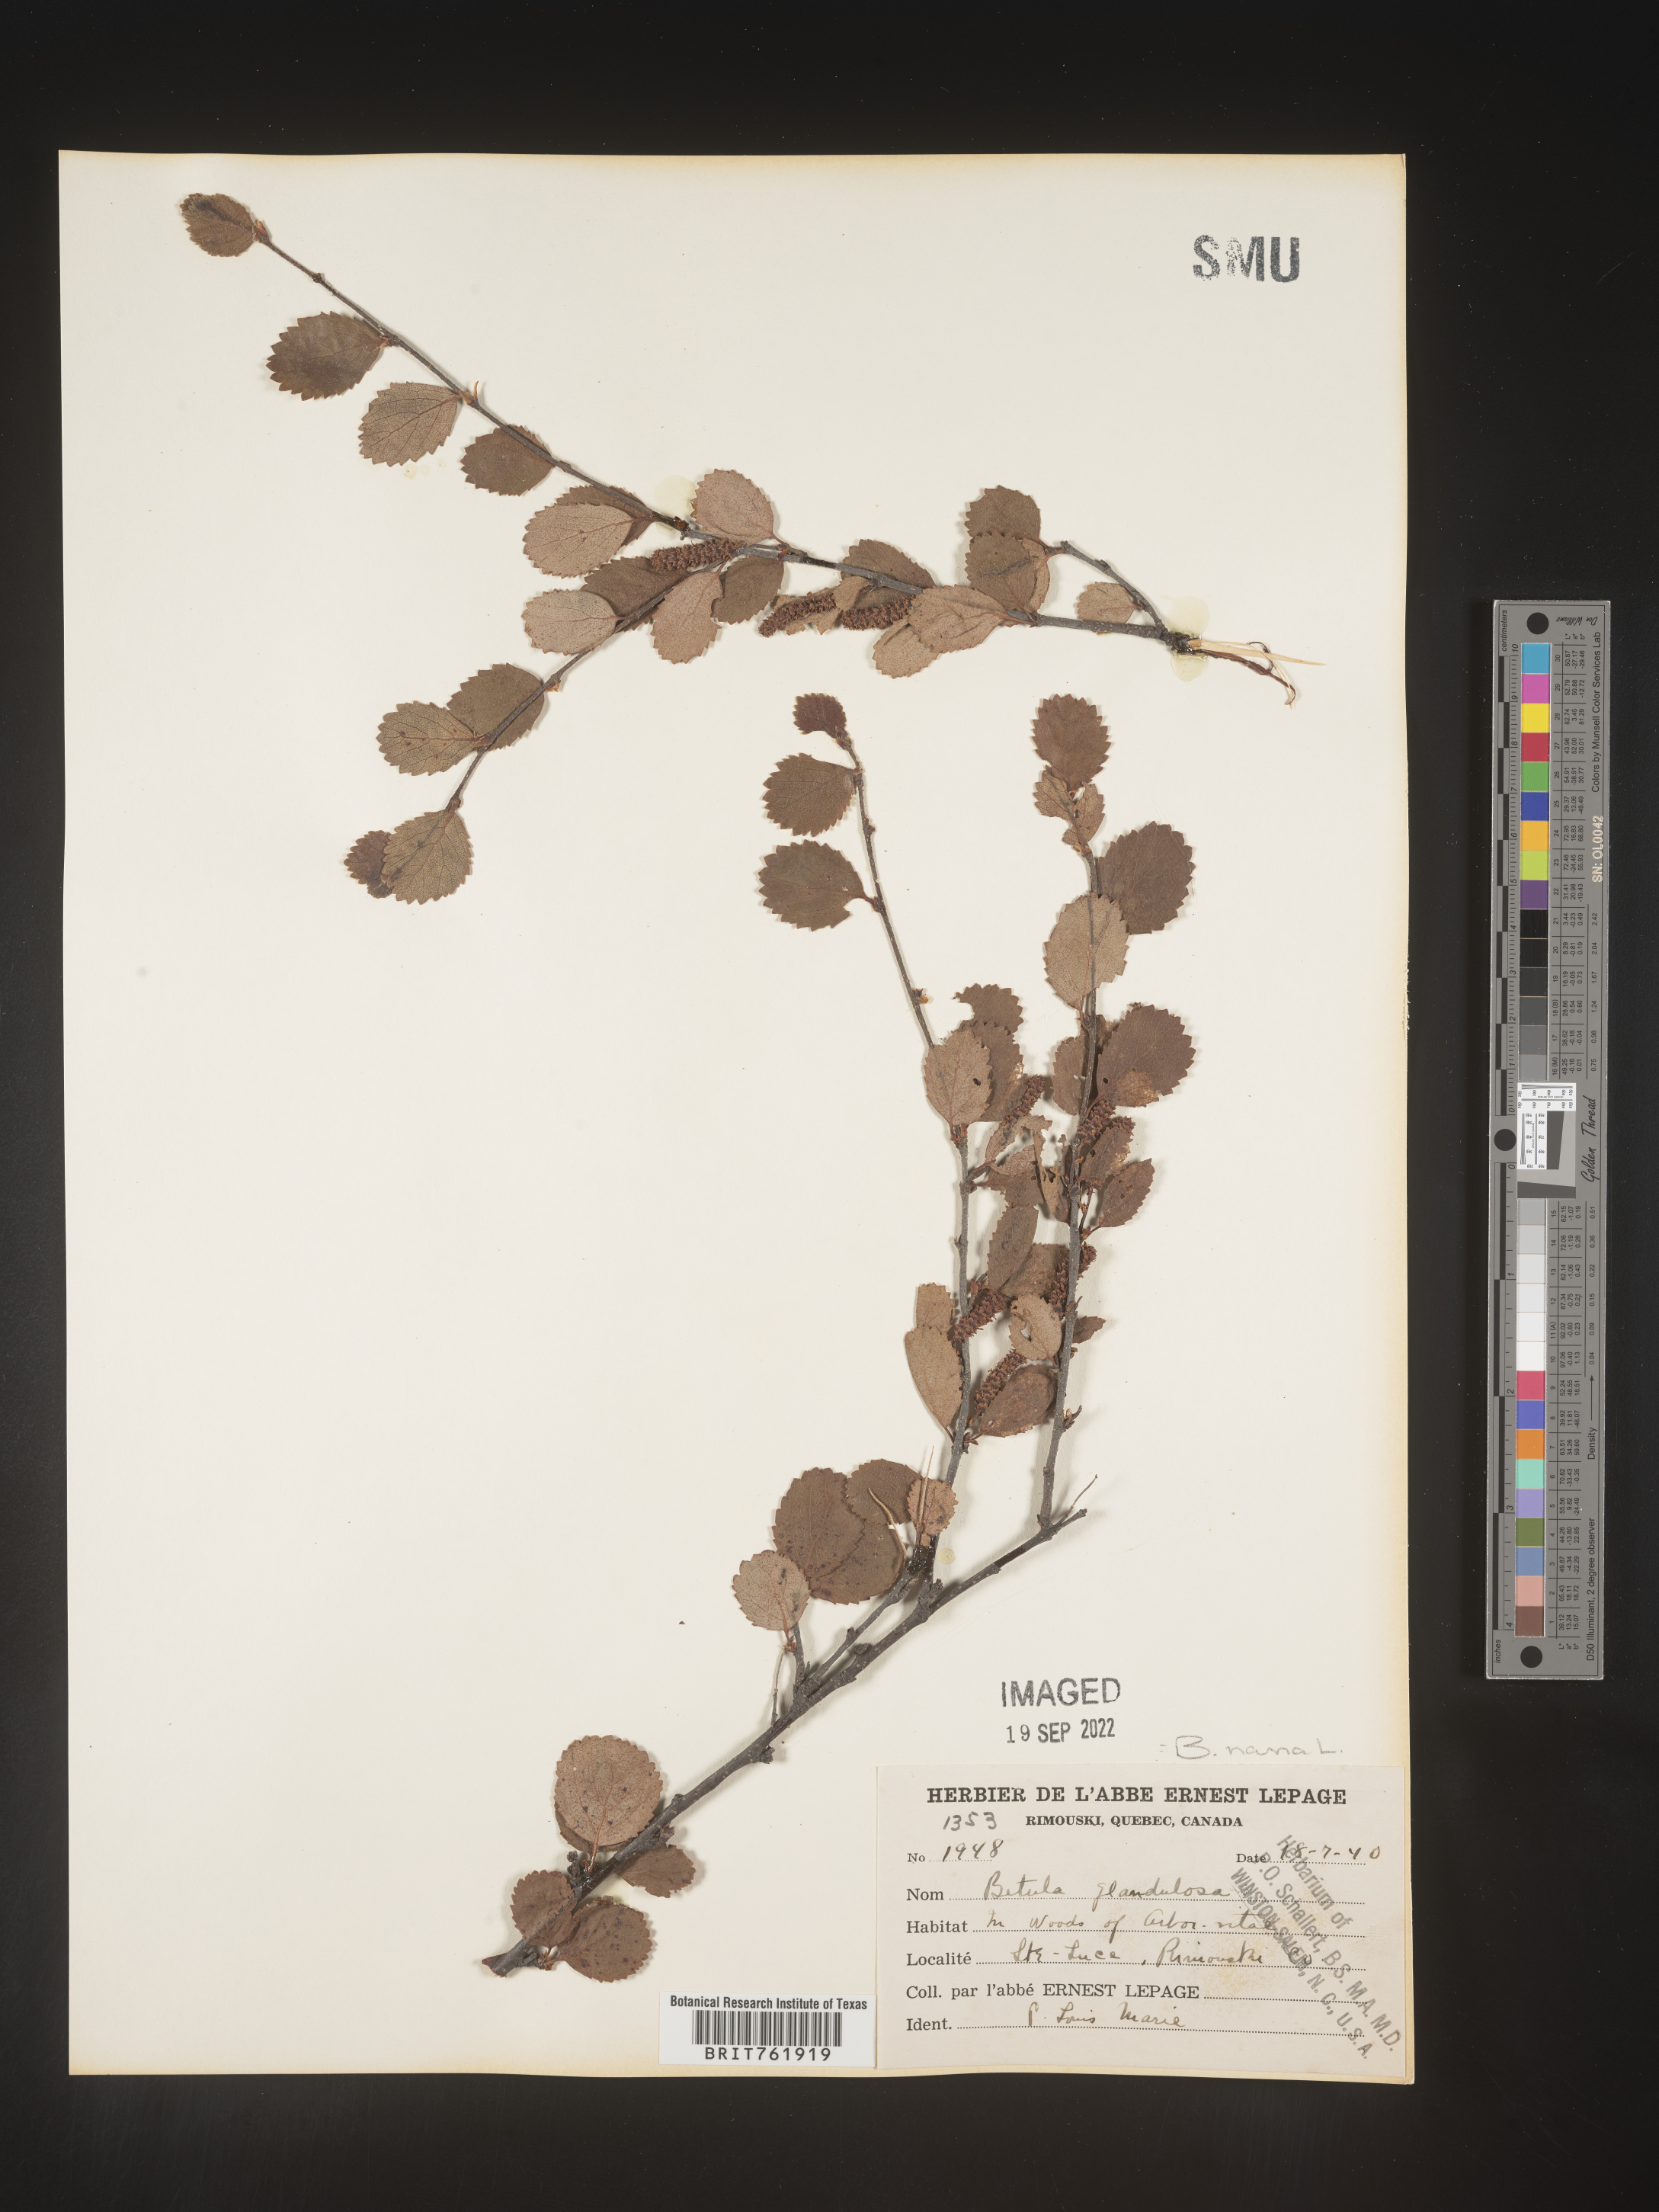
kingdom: Plantae
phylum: Tracheophyta
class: Magnoliopsida
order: Fagales
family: Betulaceae
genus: Betula
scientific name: Betula nana
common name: Arctic dwarf birch
